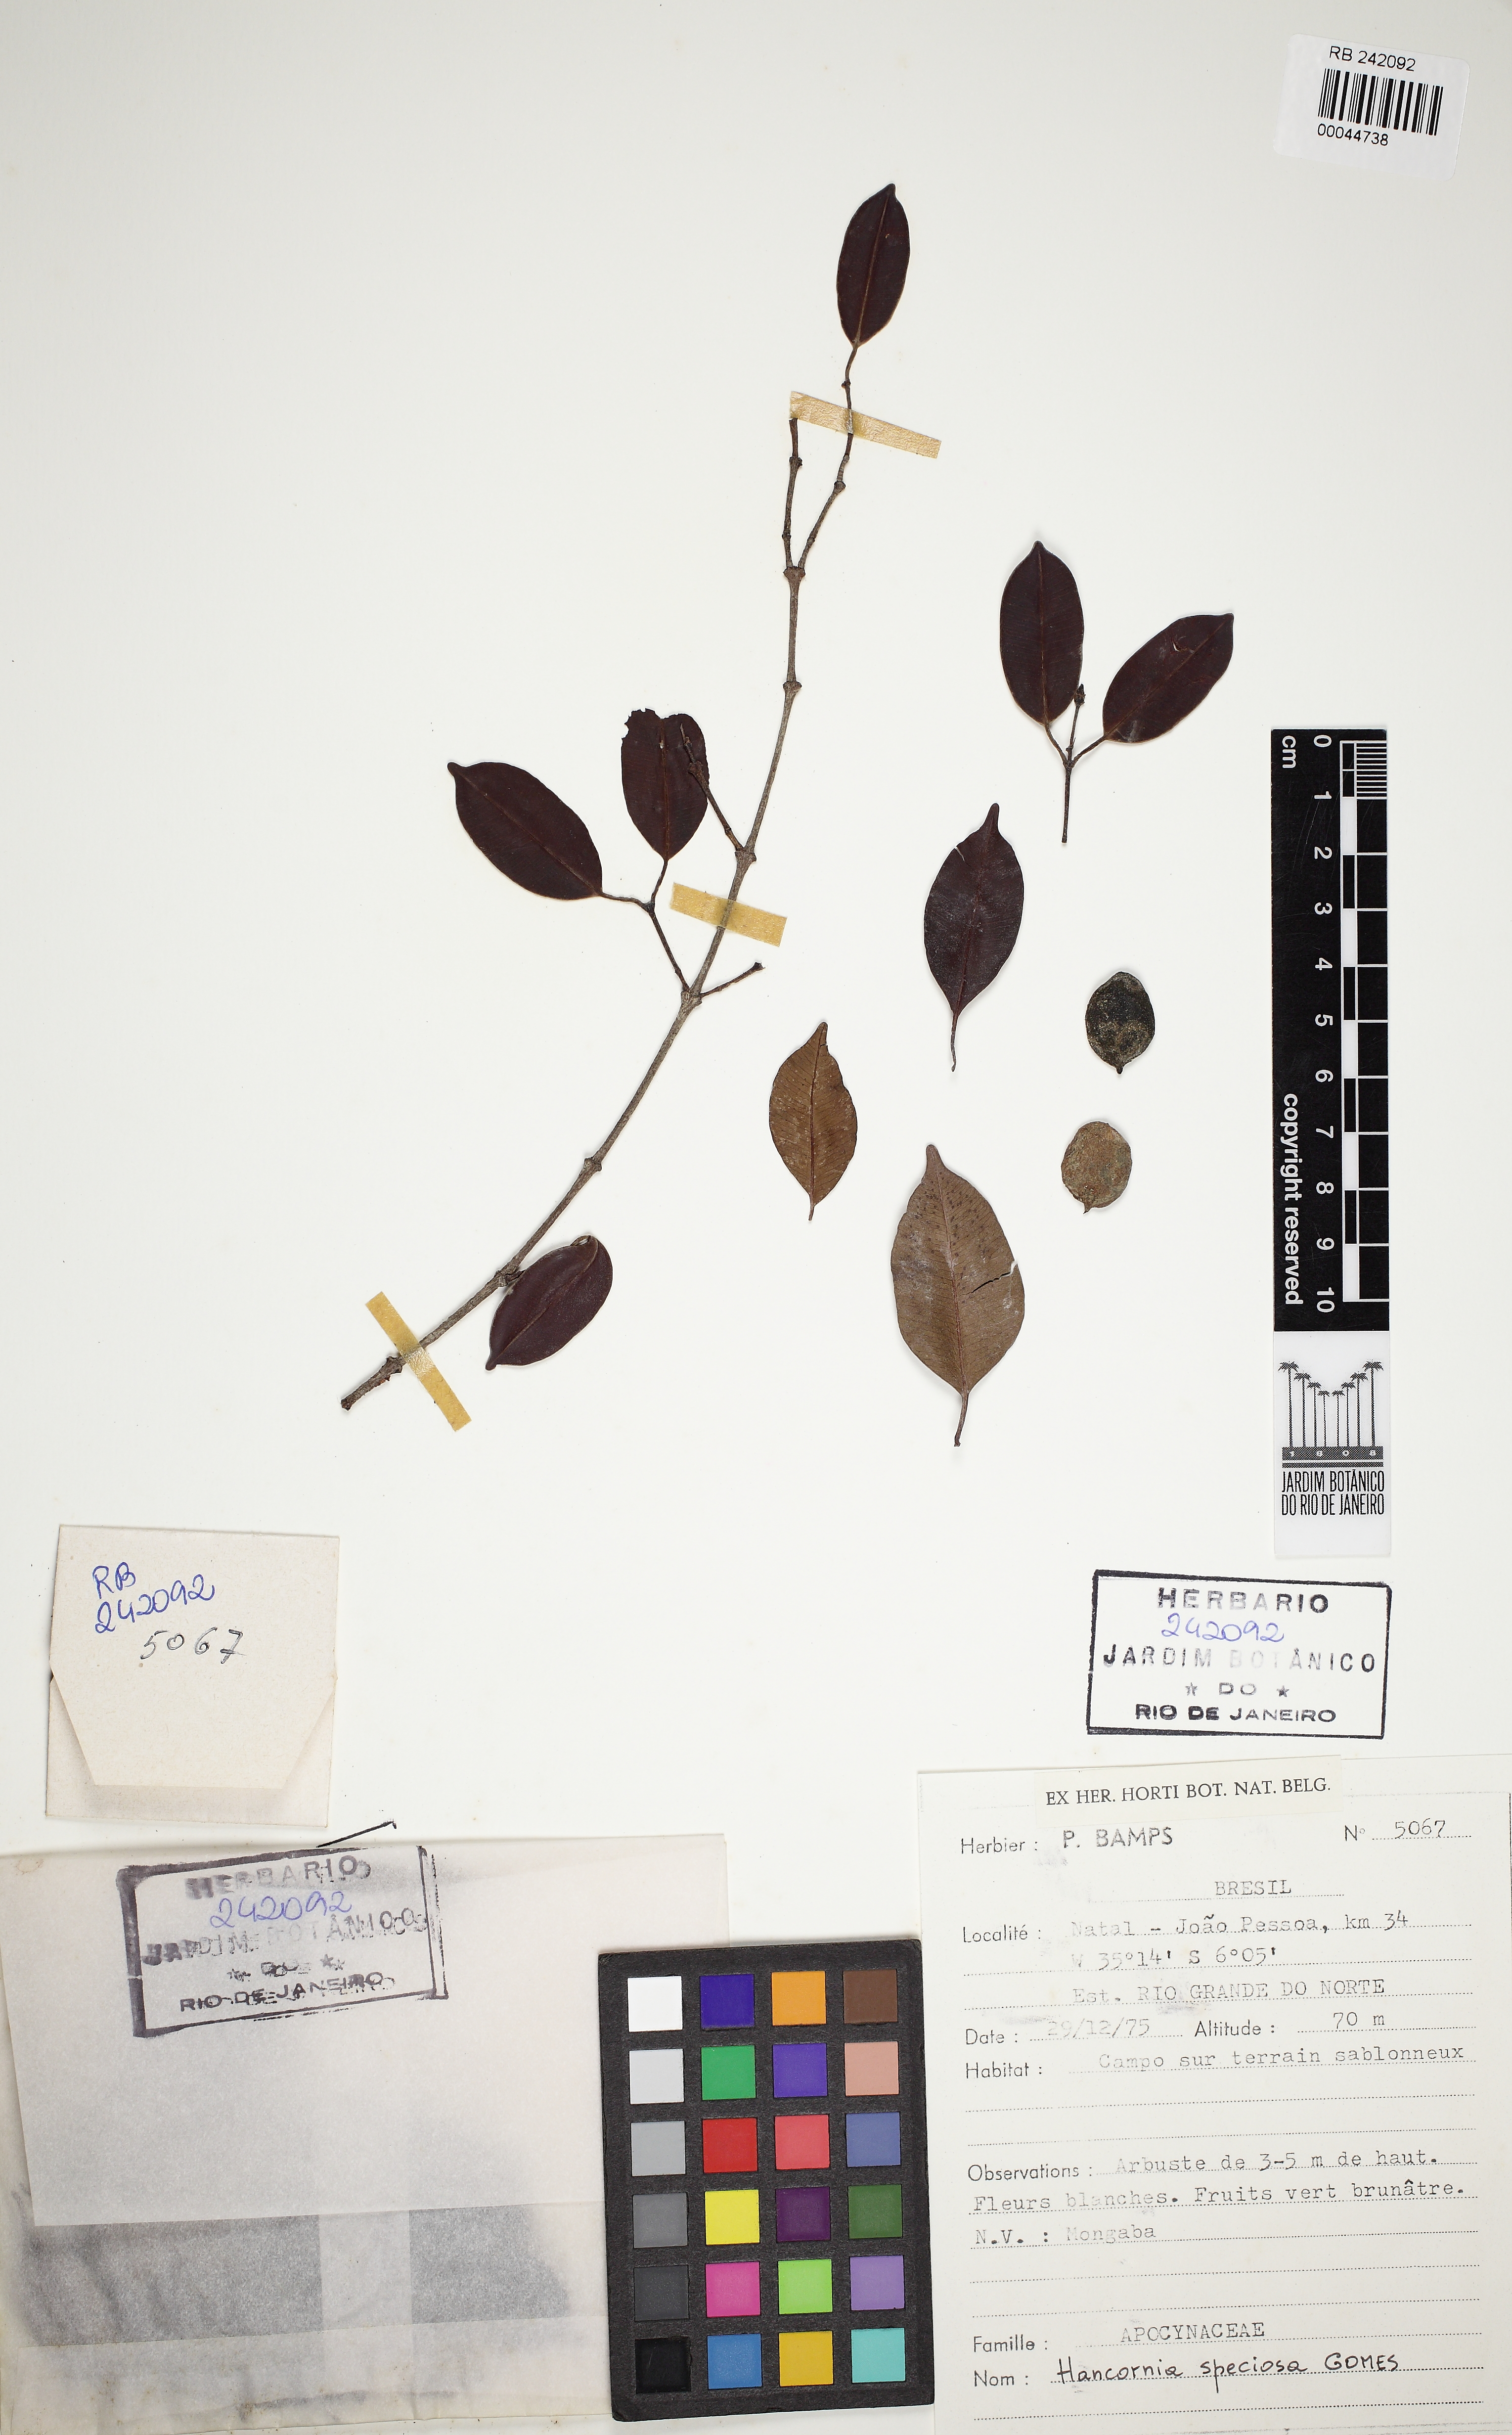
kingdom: Plantae
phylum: Tracheophyta
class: Magnoliopsida
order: Gentianales
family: Apocynaceae
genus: Hancornia
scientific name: Hancornia speciosa
